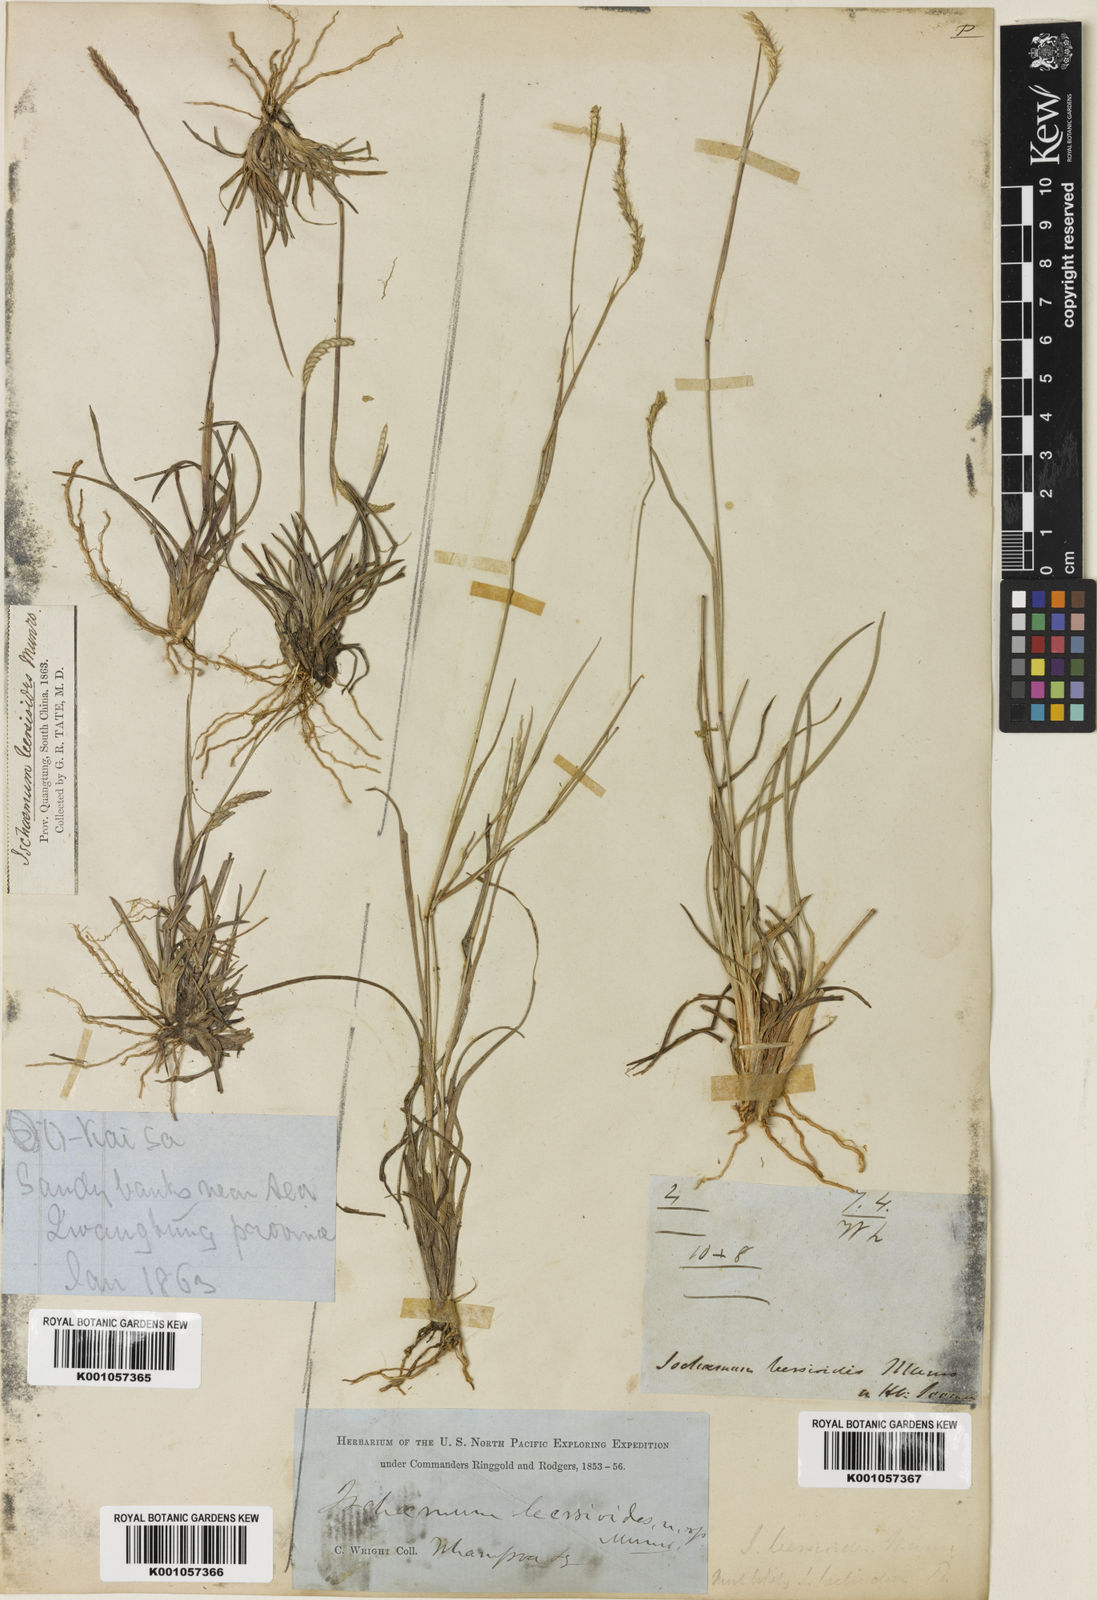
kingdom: Plantae
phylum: Tracheophyta
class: Liliopsida
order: Poales
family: Poaceae
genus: Eremochloa
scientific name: Eremochloa ciliaris
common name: Fringed centipede grass
